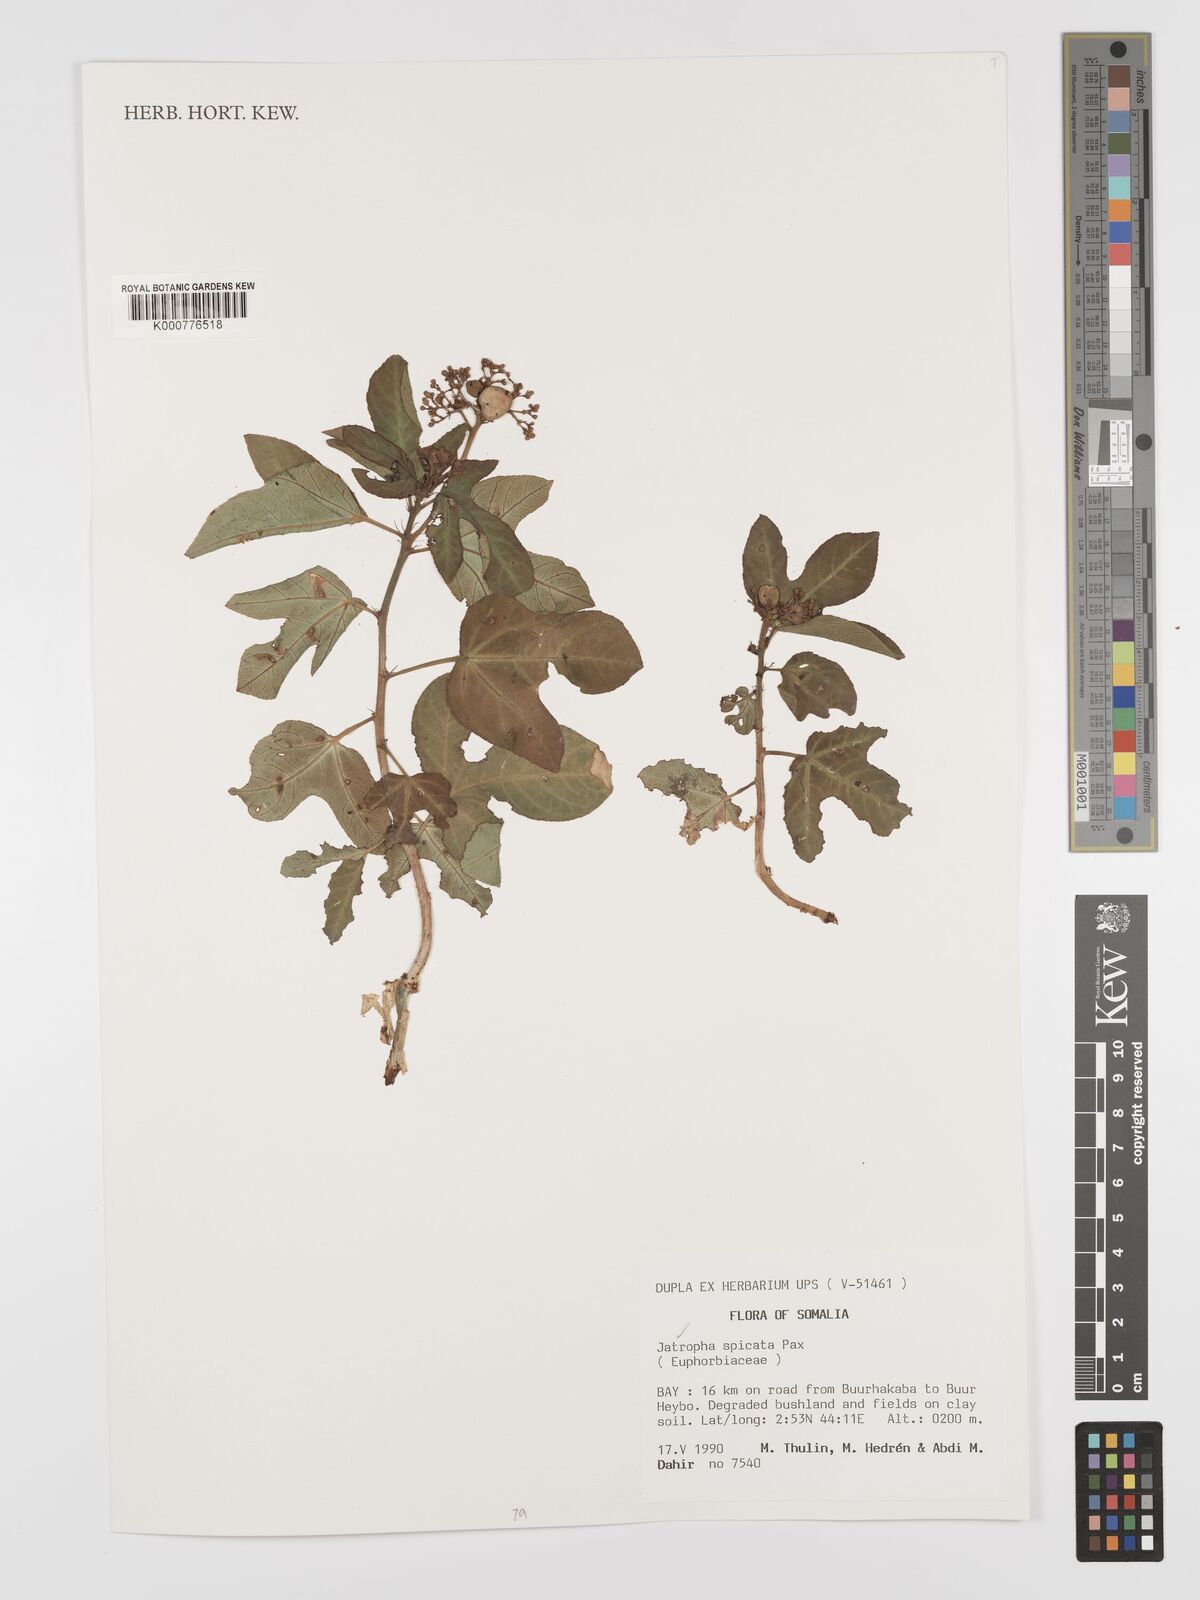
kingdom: Plantae
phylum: Tracheophyta
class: Magnoliopsida
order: Malpighiales
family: Euphorbiaceae
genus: Jatropha
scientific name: Jatropha spicata
